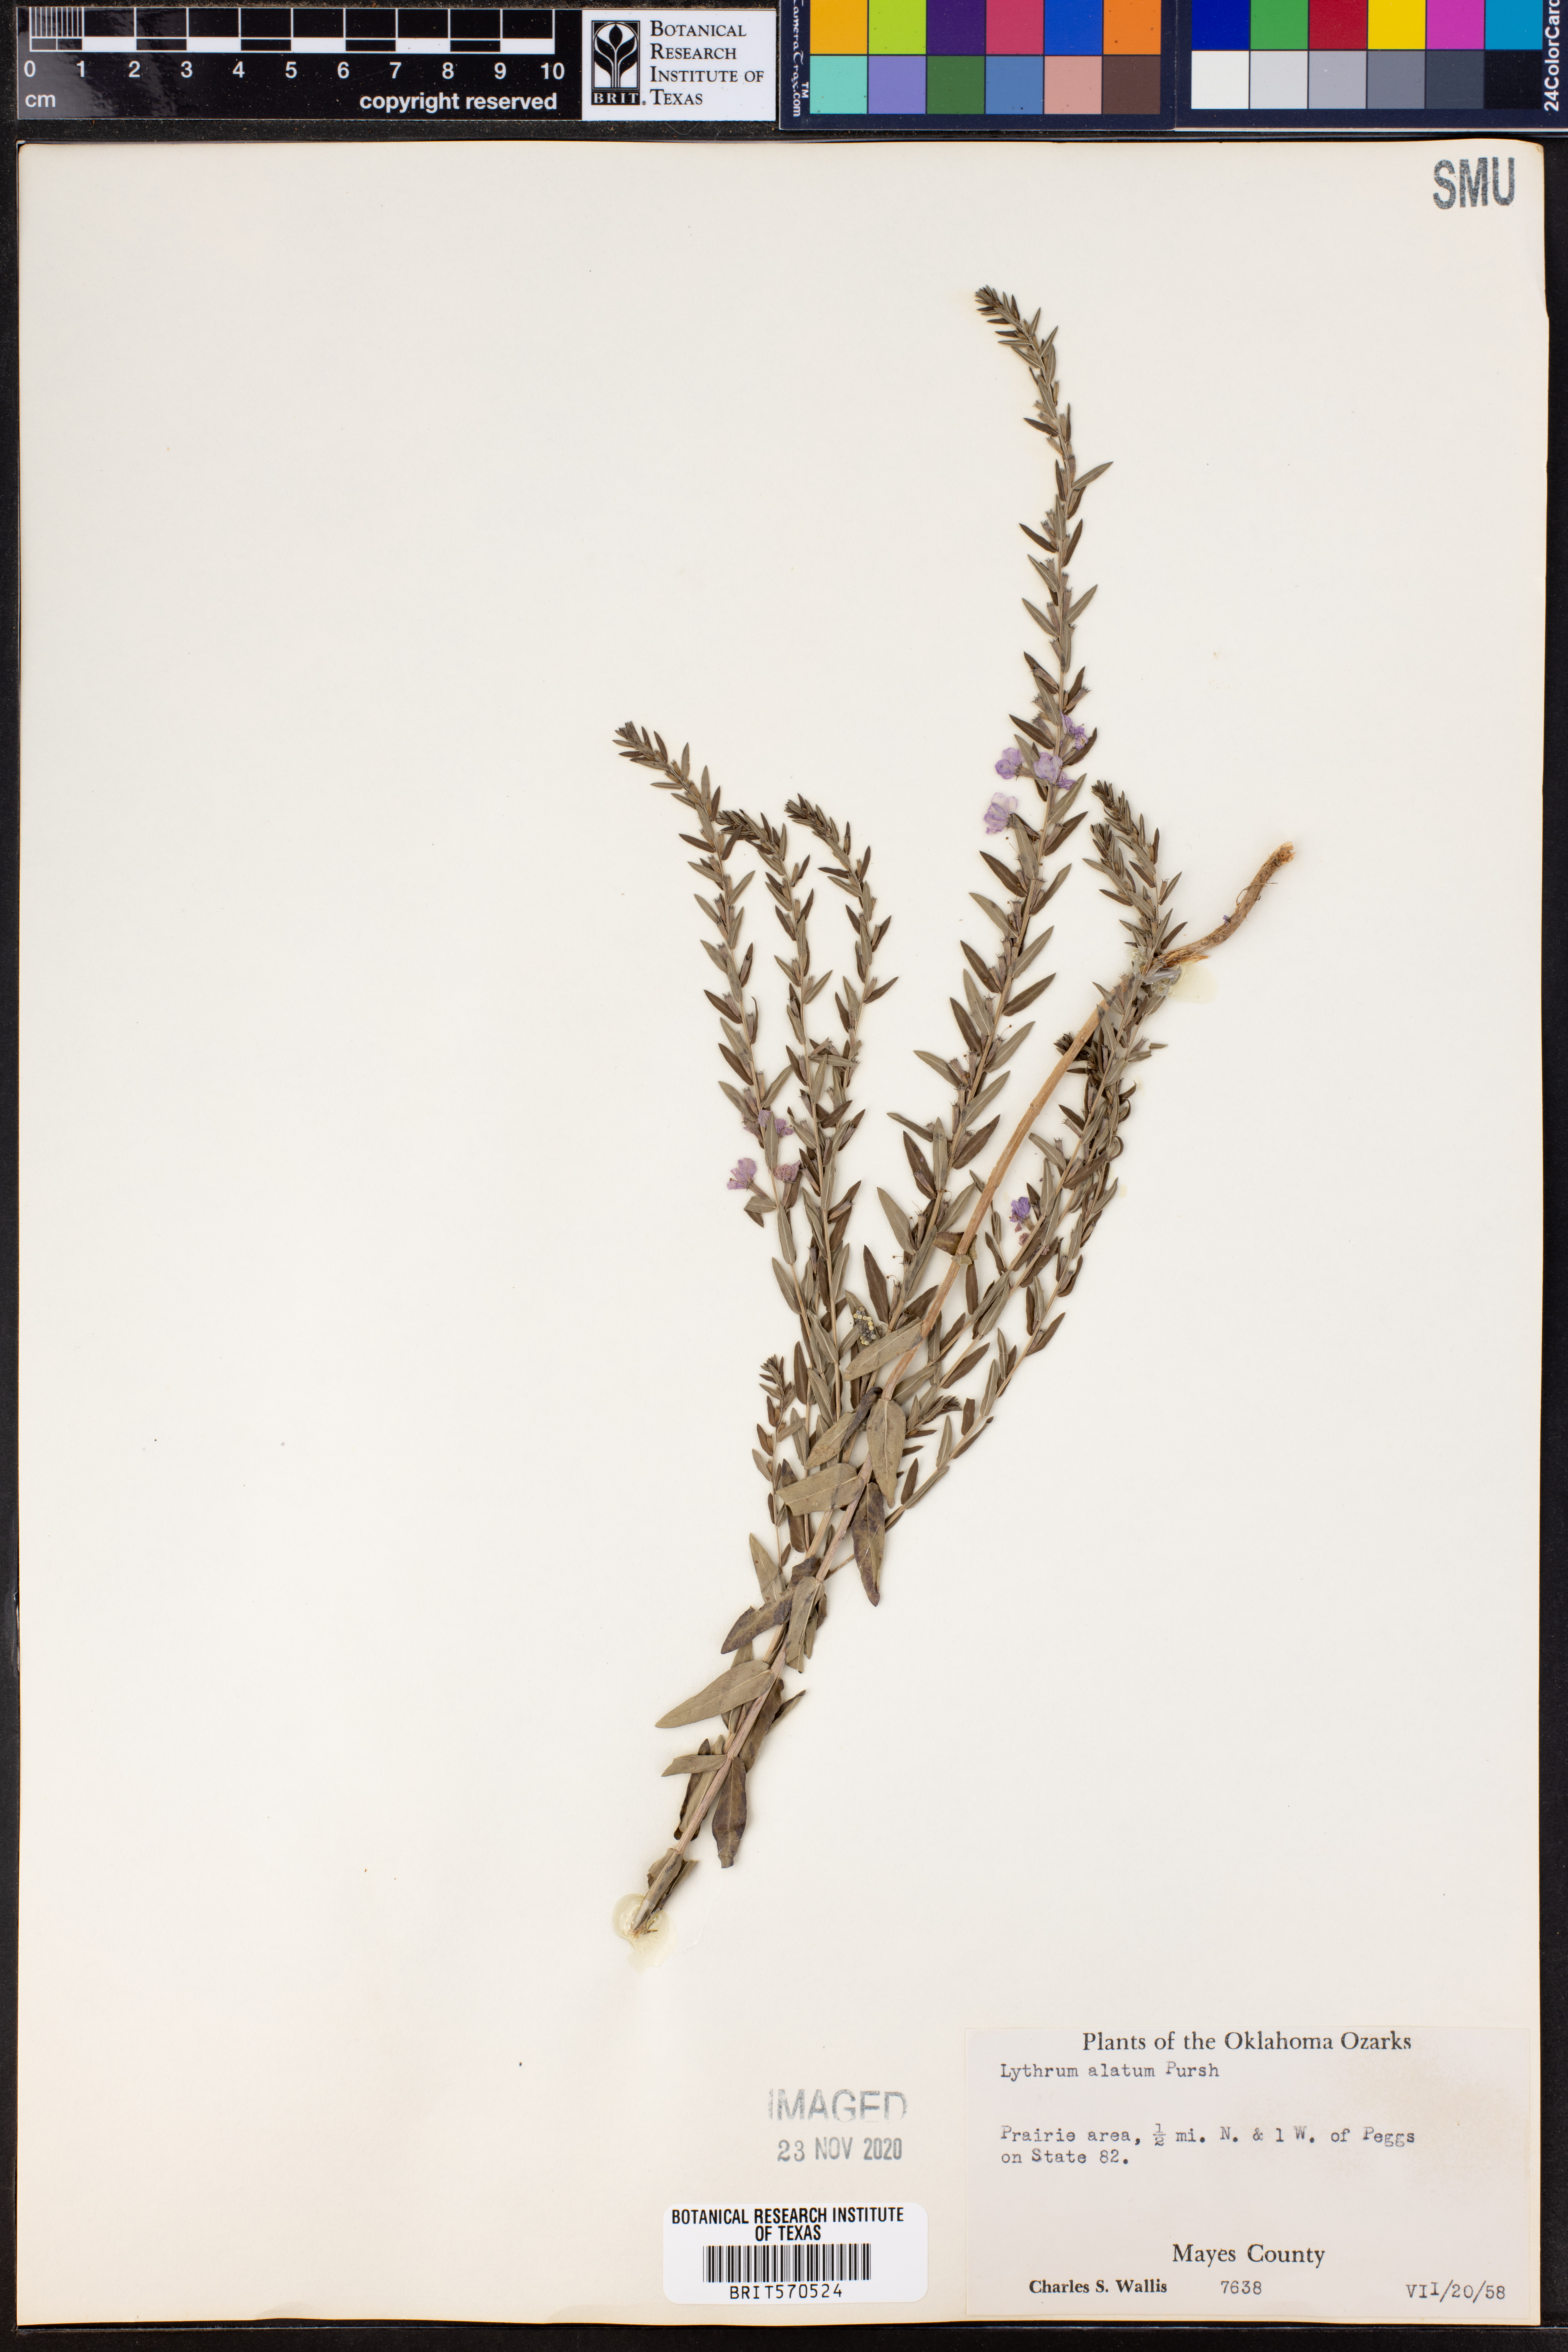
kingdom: Plantae
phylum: Tracheophyta
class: Magnoliopsida
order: Myrtales
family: Lythraceae
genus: Lythrum
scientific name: Lythrum alatum
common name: Winged loosestrife
